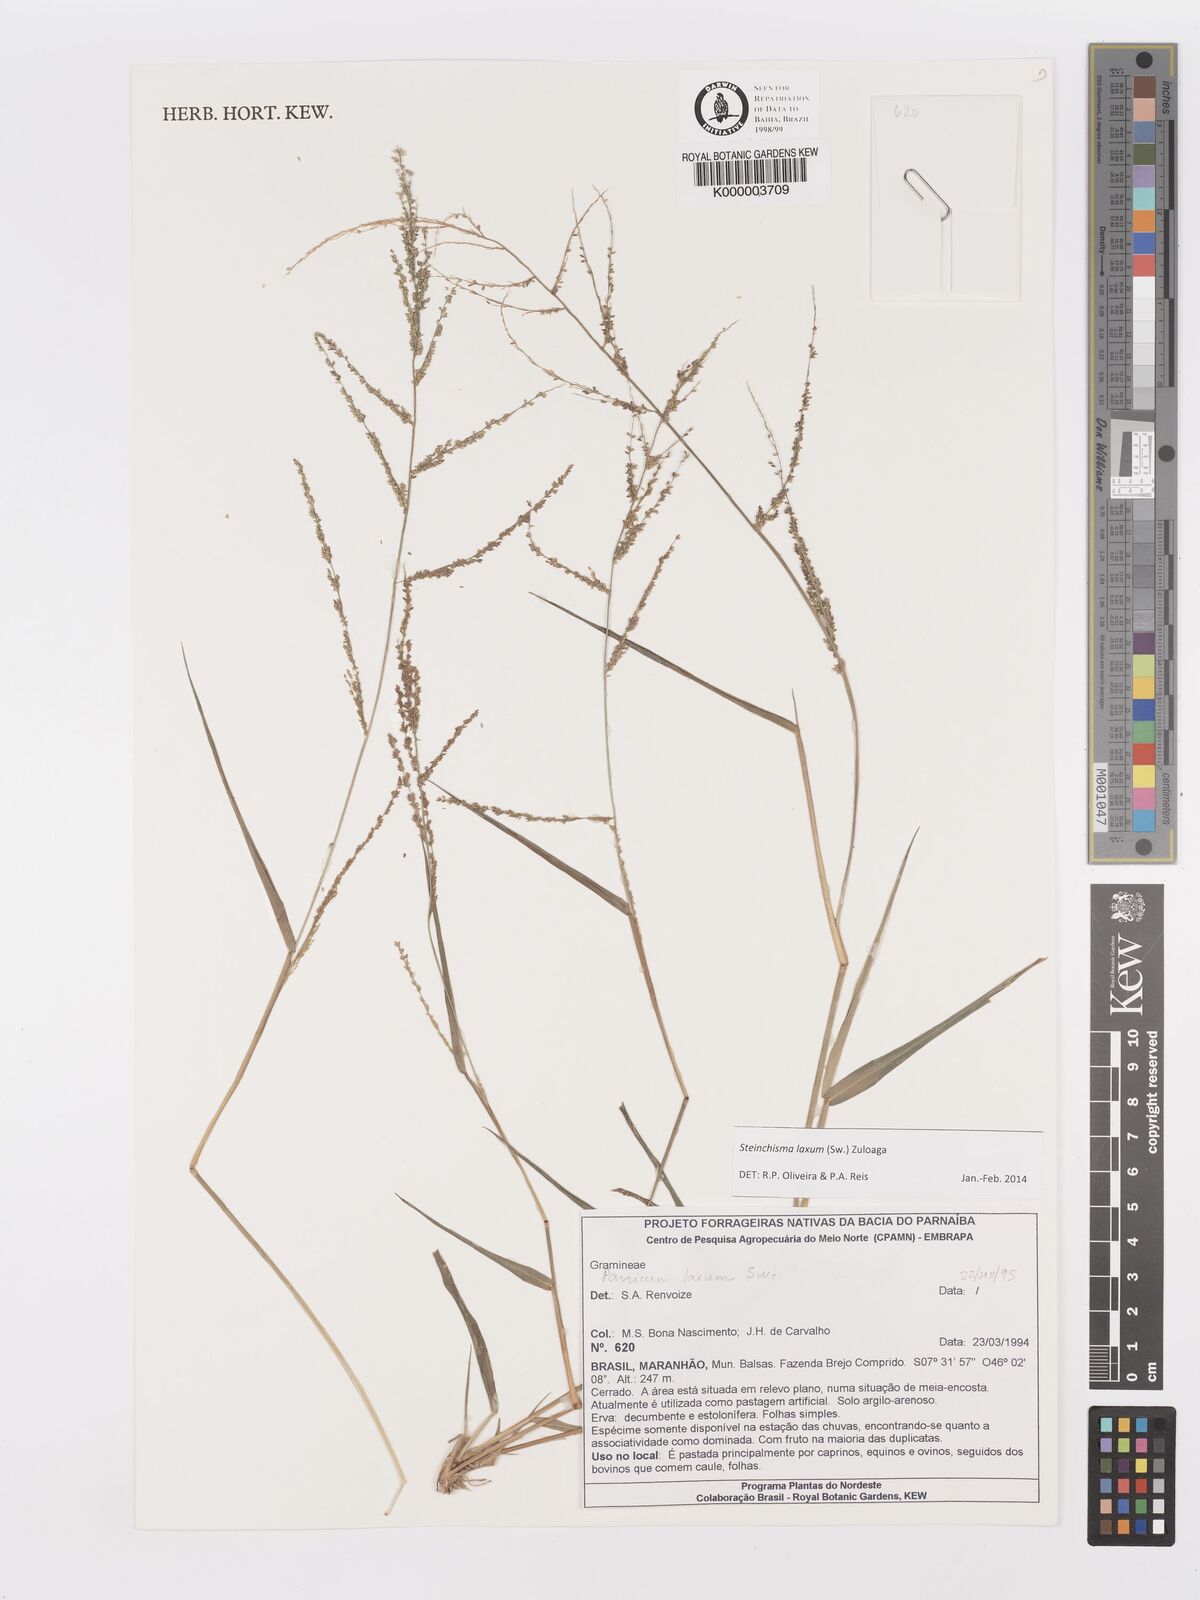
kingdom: Plantae
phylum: Tracheophyta
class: Liliopsida
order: Poales
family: Poaceae
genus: Panicum
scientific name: Panicum
